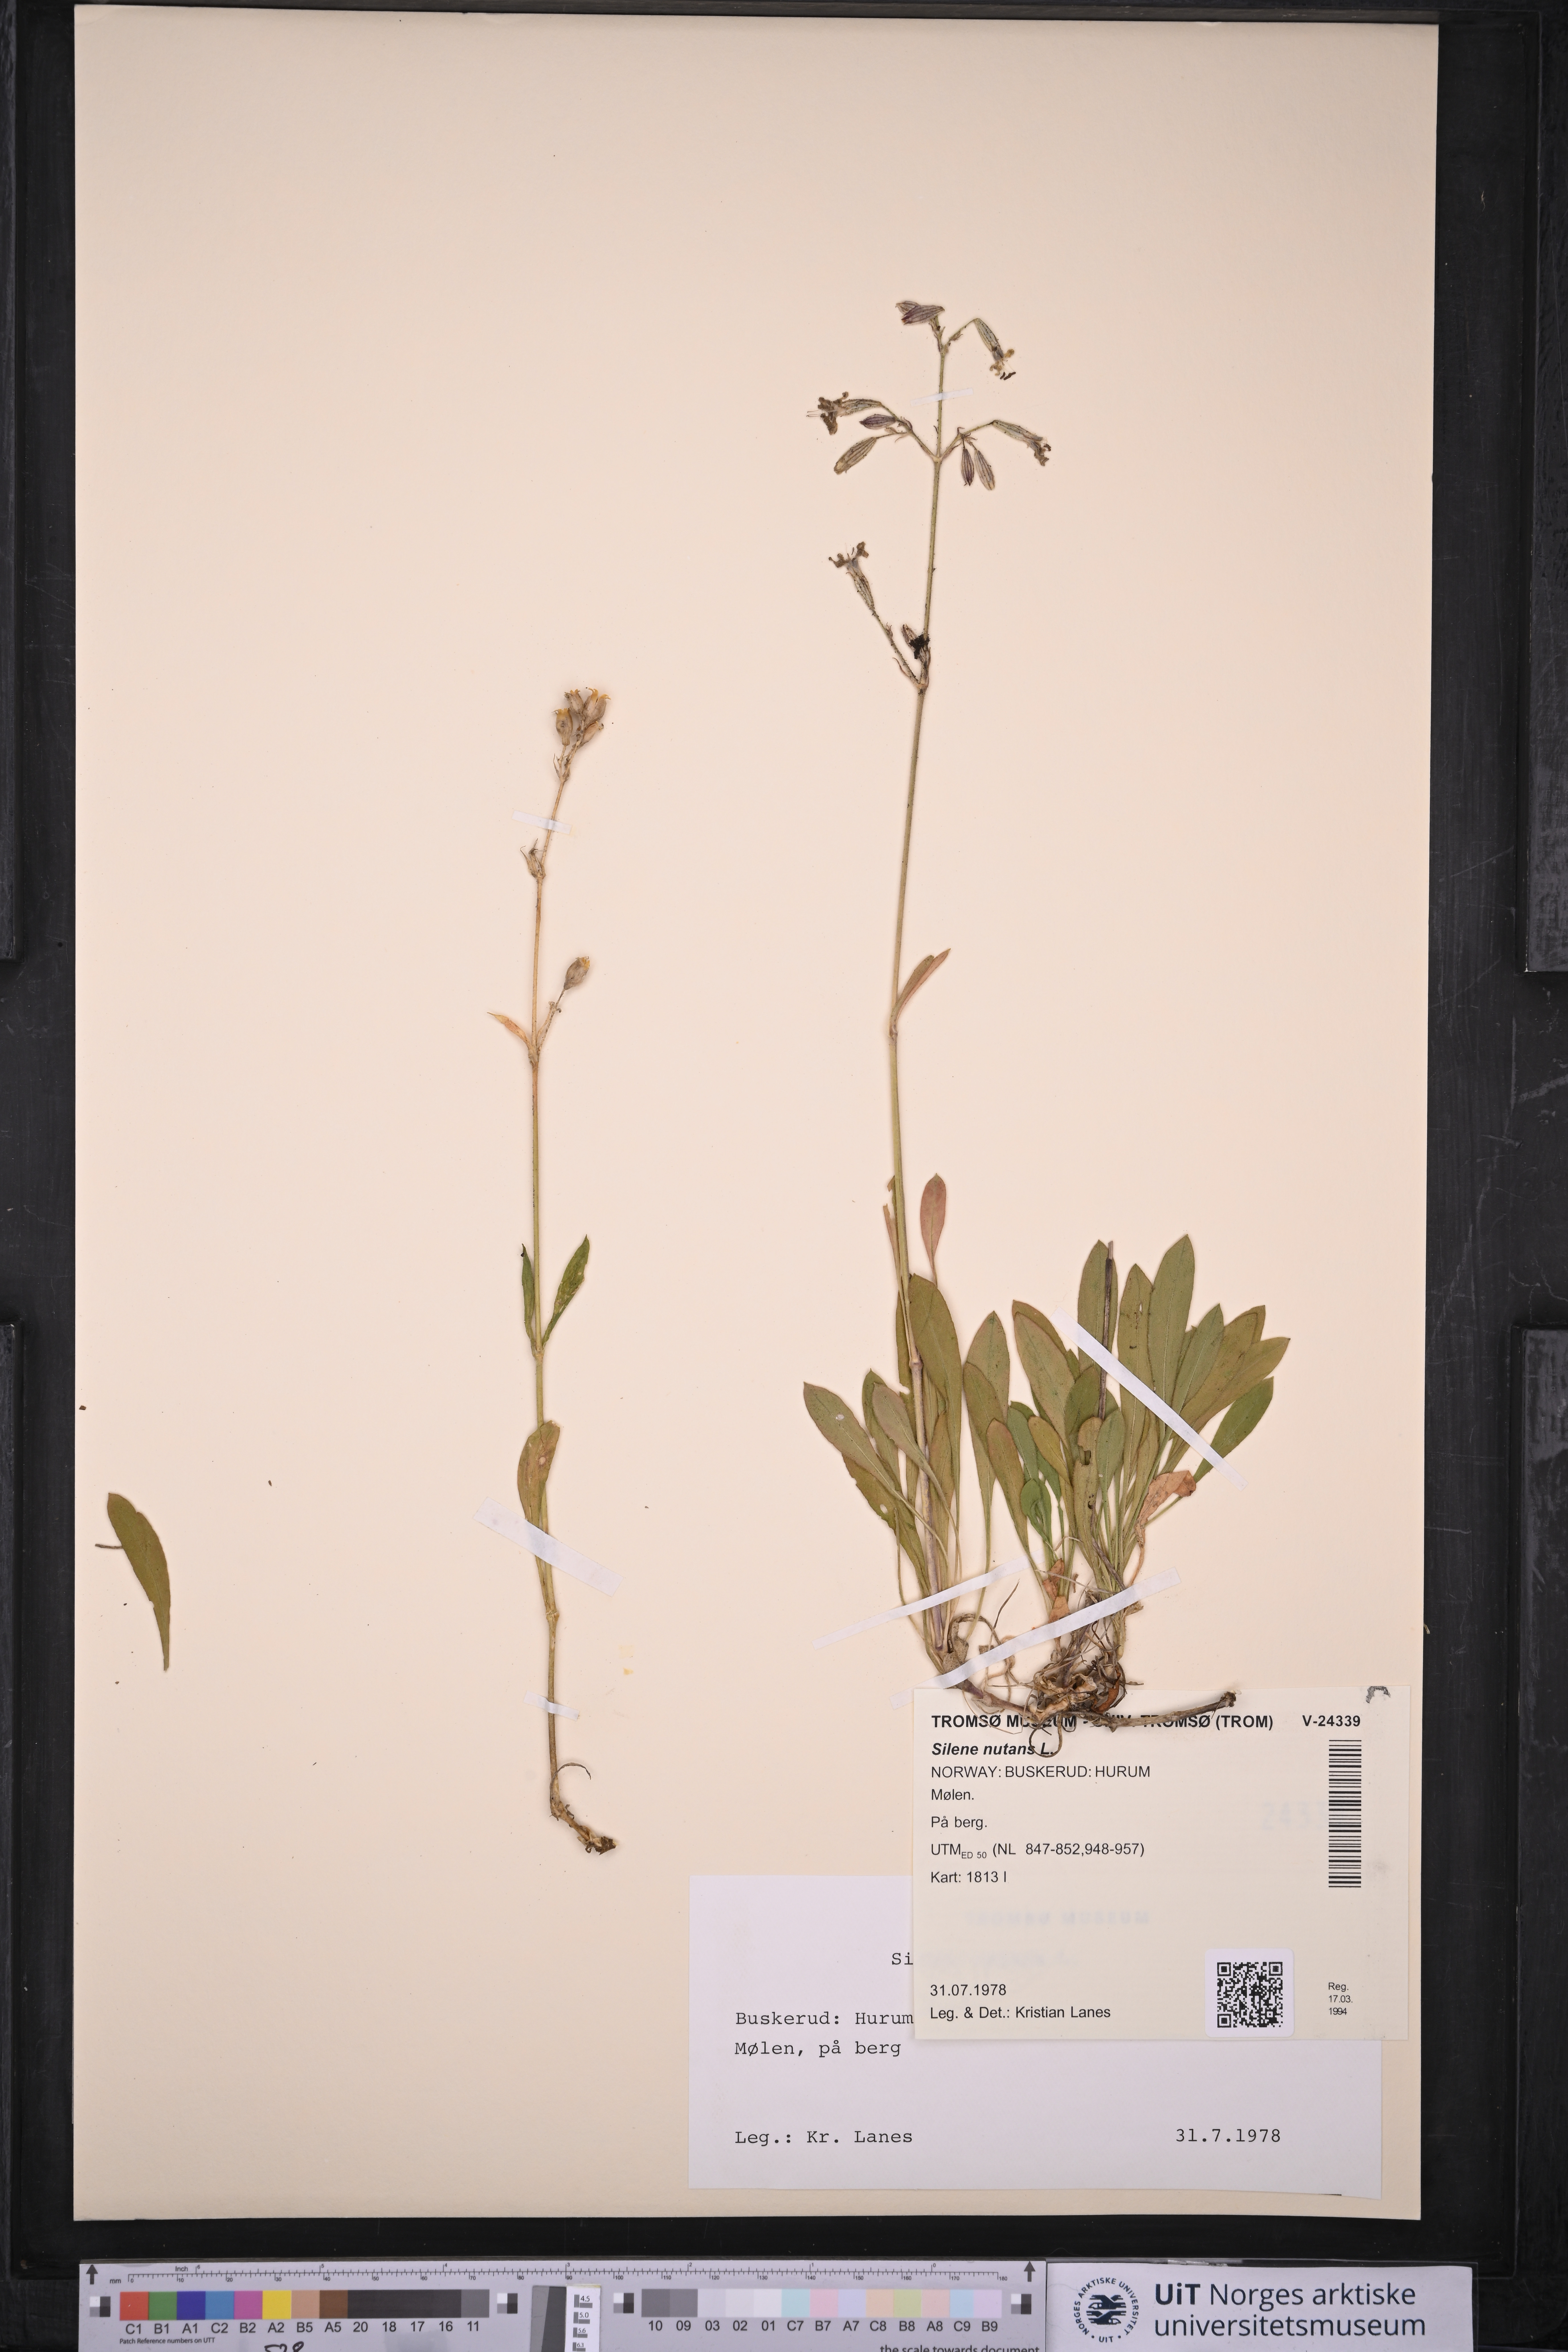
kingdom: Plantae
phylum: Tracheophyta
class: Magnoliopsida
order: Caryophyllales
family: Caryophyllaceae
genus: Silene
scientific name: Silene nutans
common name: Nottingham catchfly
